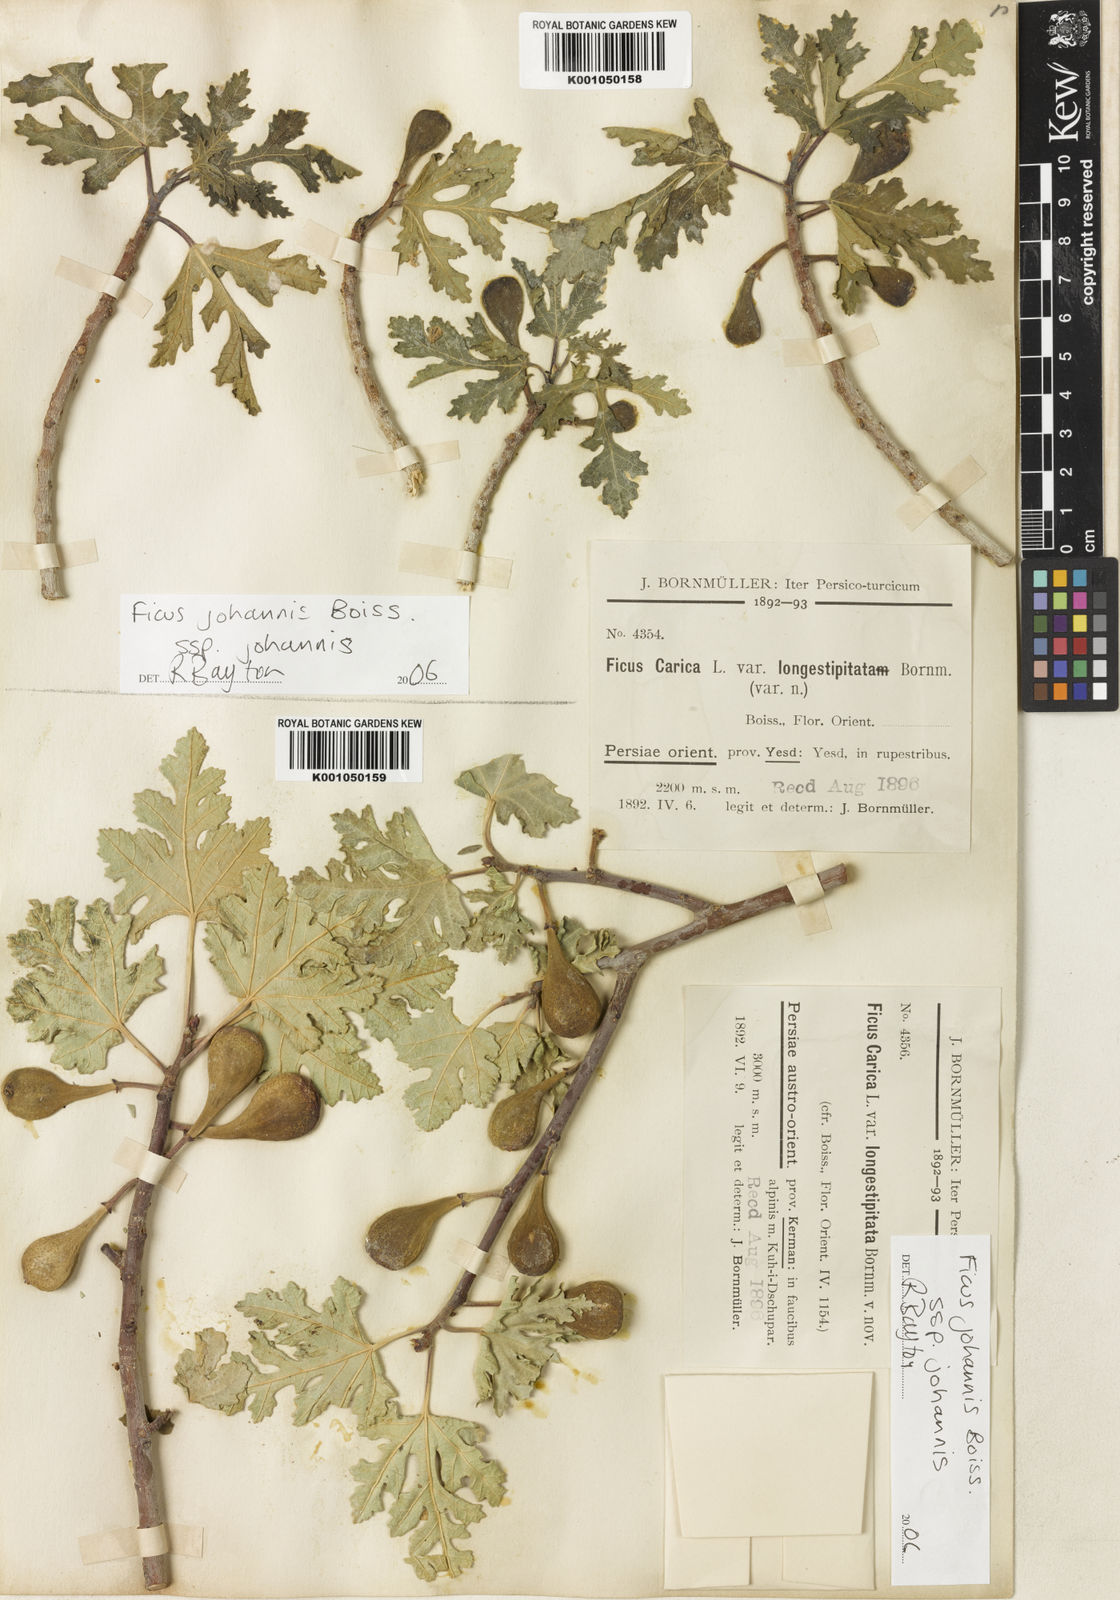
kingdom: Plantae
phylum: Tracheophyta
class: Magnoliopsida
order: Rosales
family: Moraceae
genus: Ficus
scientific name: Ficus carica
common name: Fig
